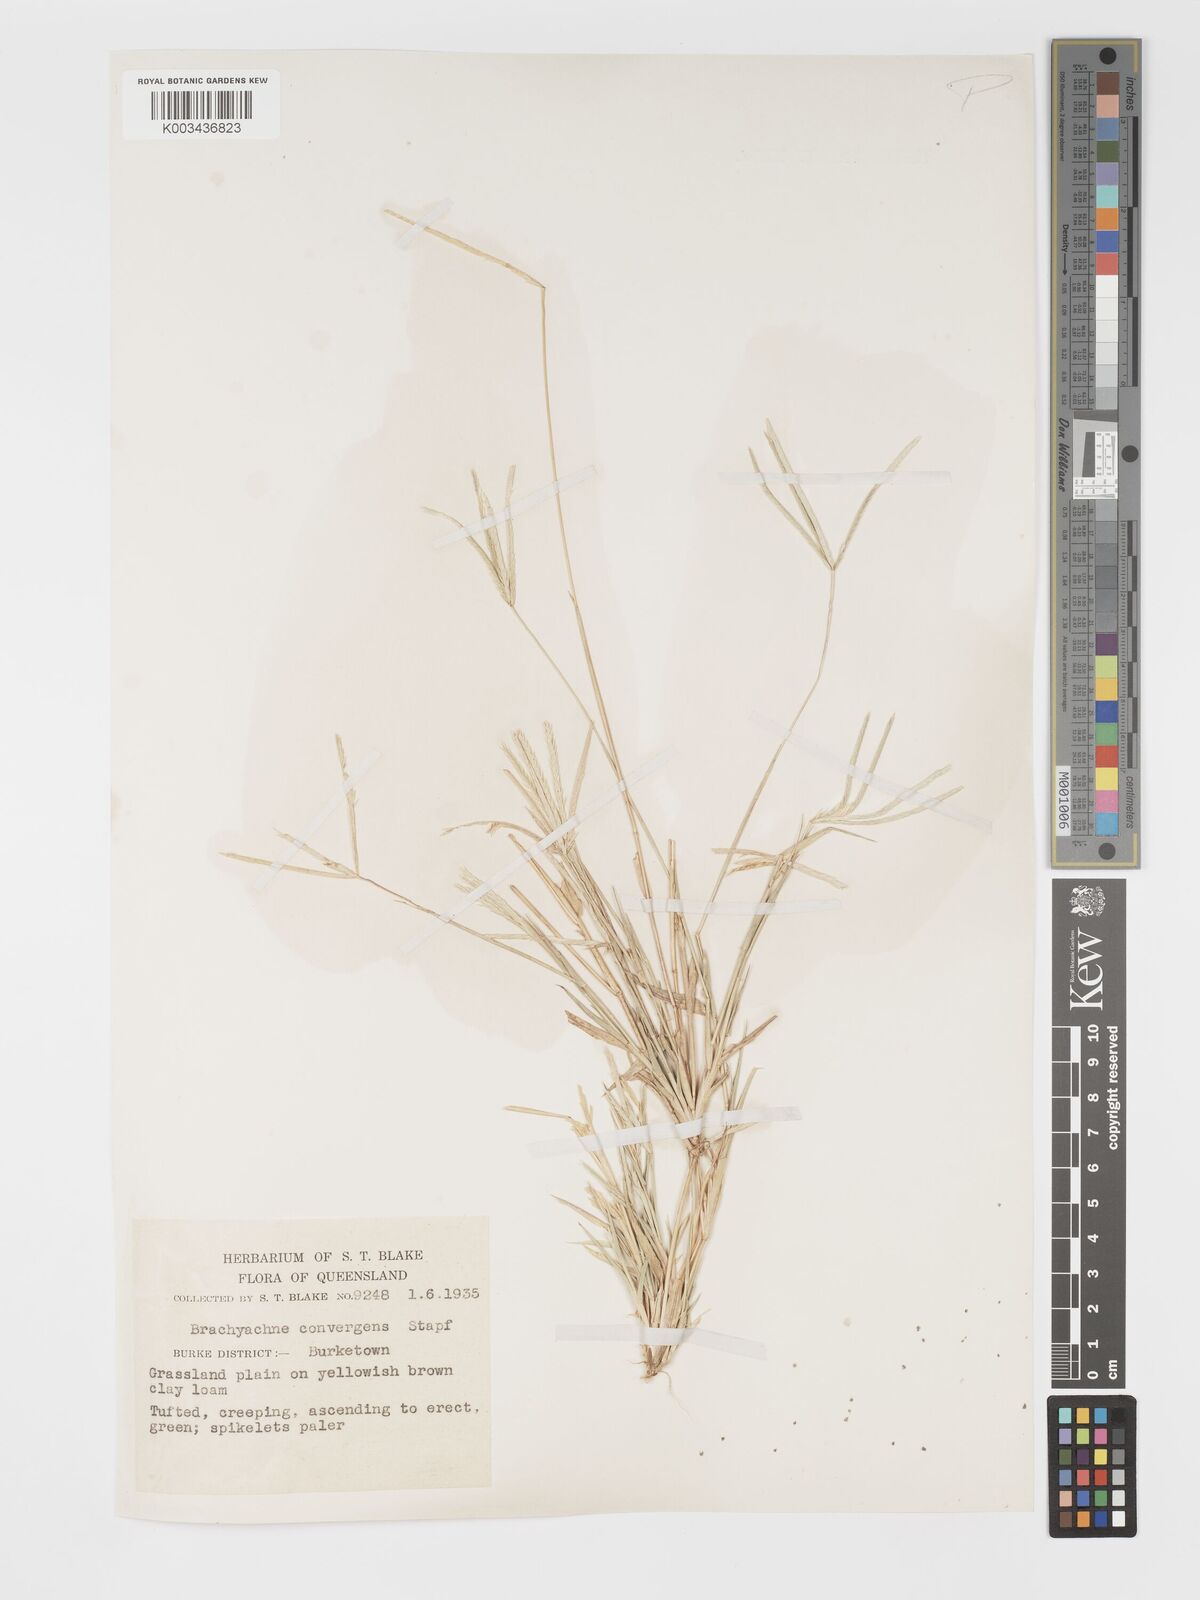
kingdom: Plantae
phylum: Tracheophyta
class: Liliopsida
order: Poales
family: Poaceae
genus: Cynodon
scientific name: Cynodon convergens
